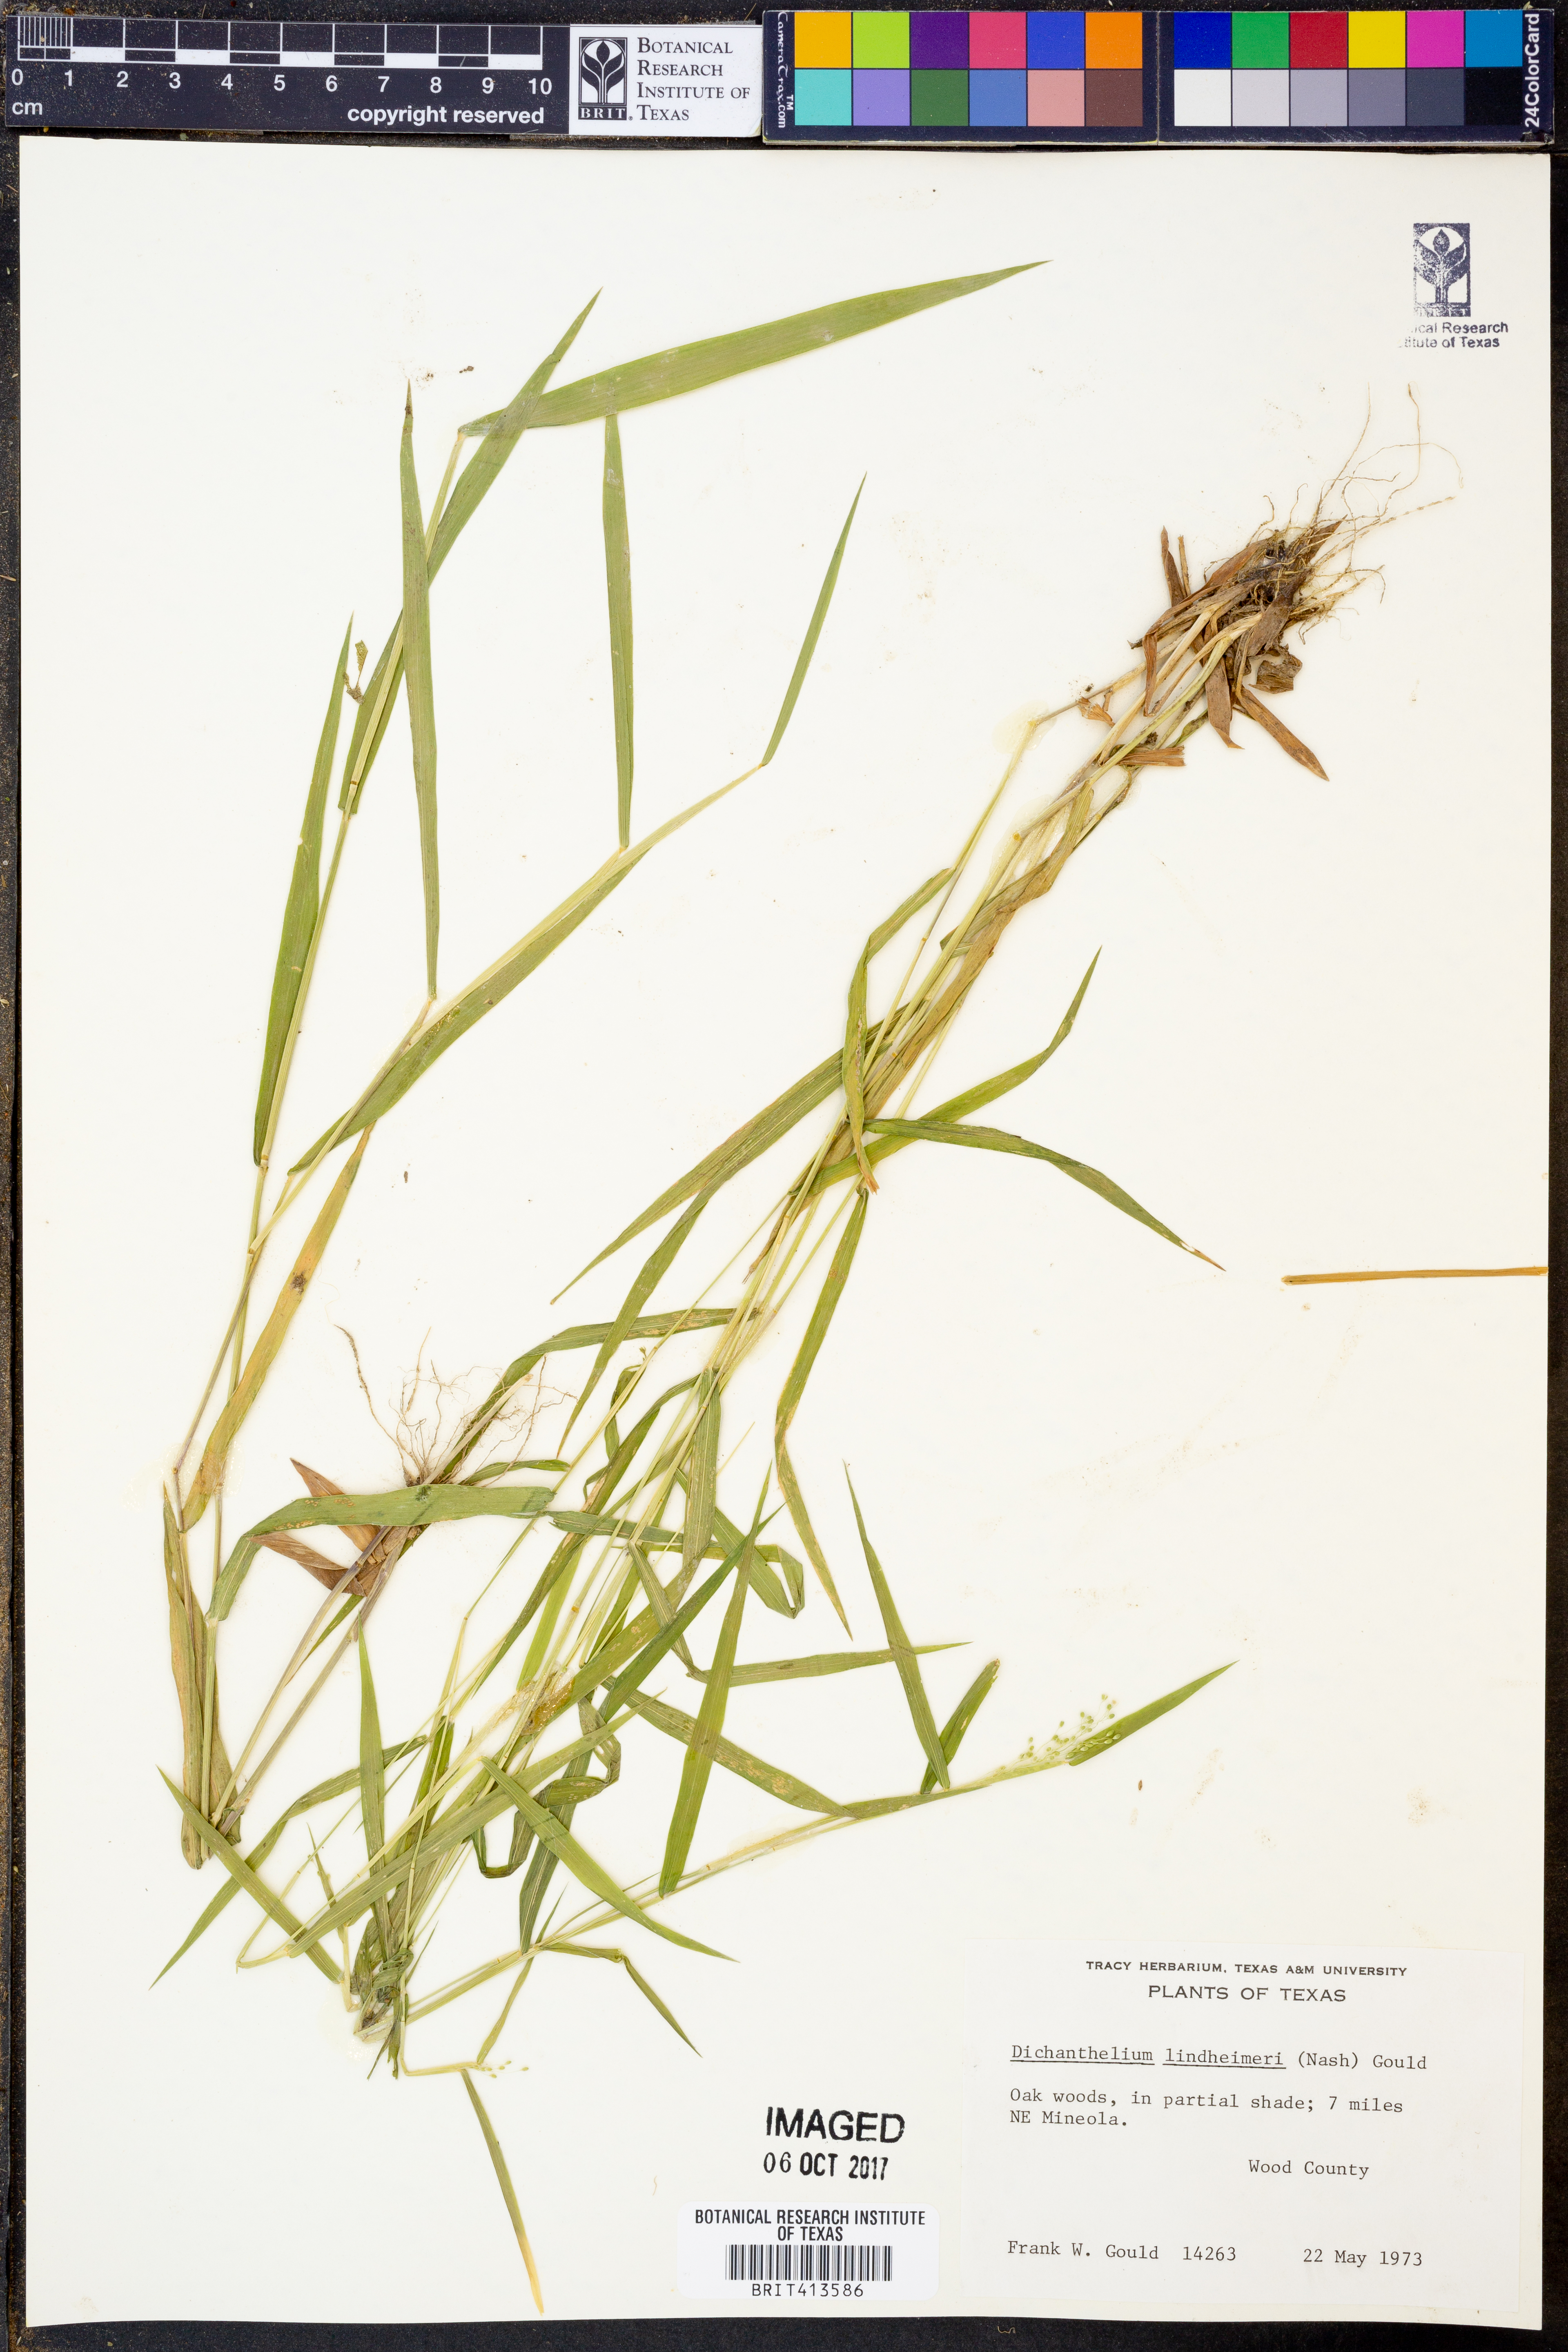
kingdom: Plantae
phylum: Tracheophyta
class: Liliopsida
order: Poales
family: Poaceae
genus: Dichanthelium
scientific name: Dichanthelium lindheimeri
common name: Lindheimer's panicgrass
